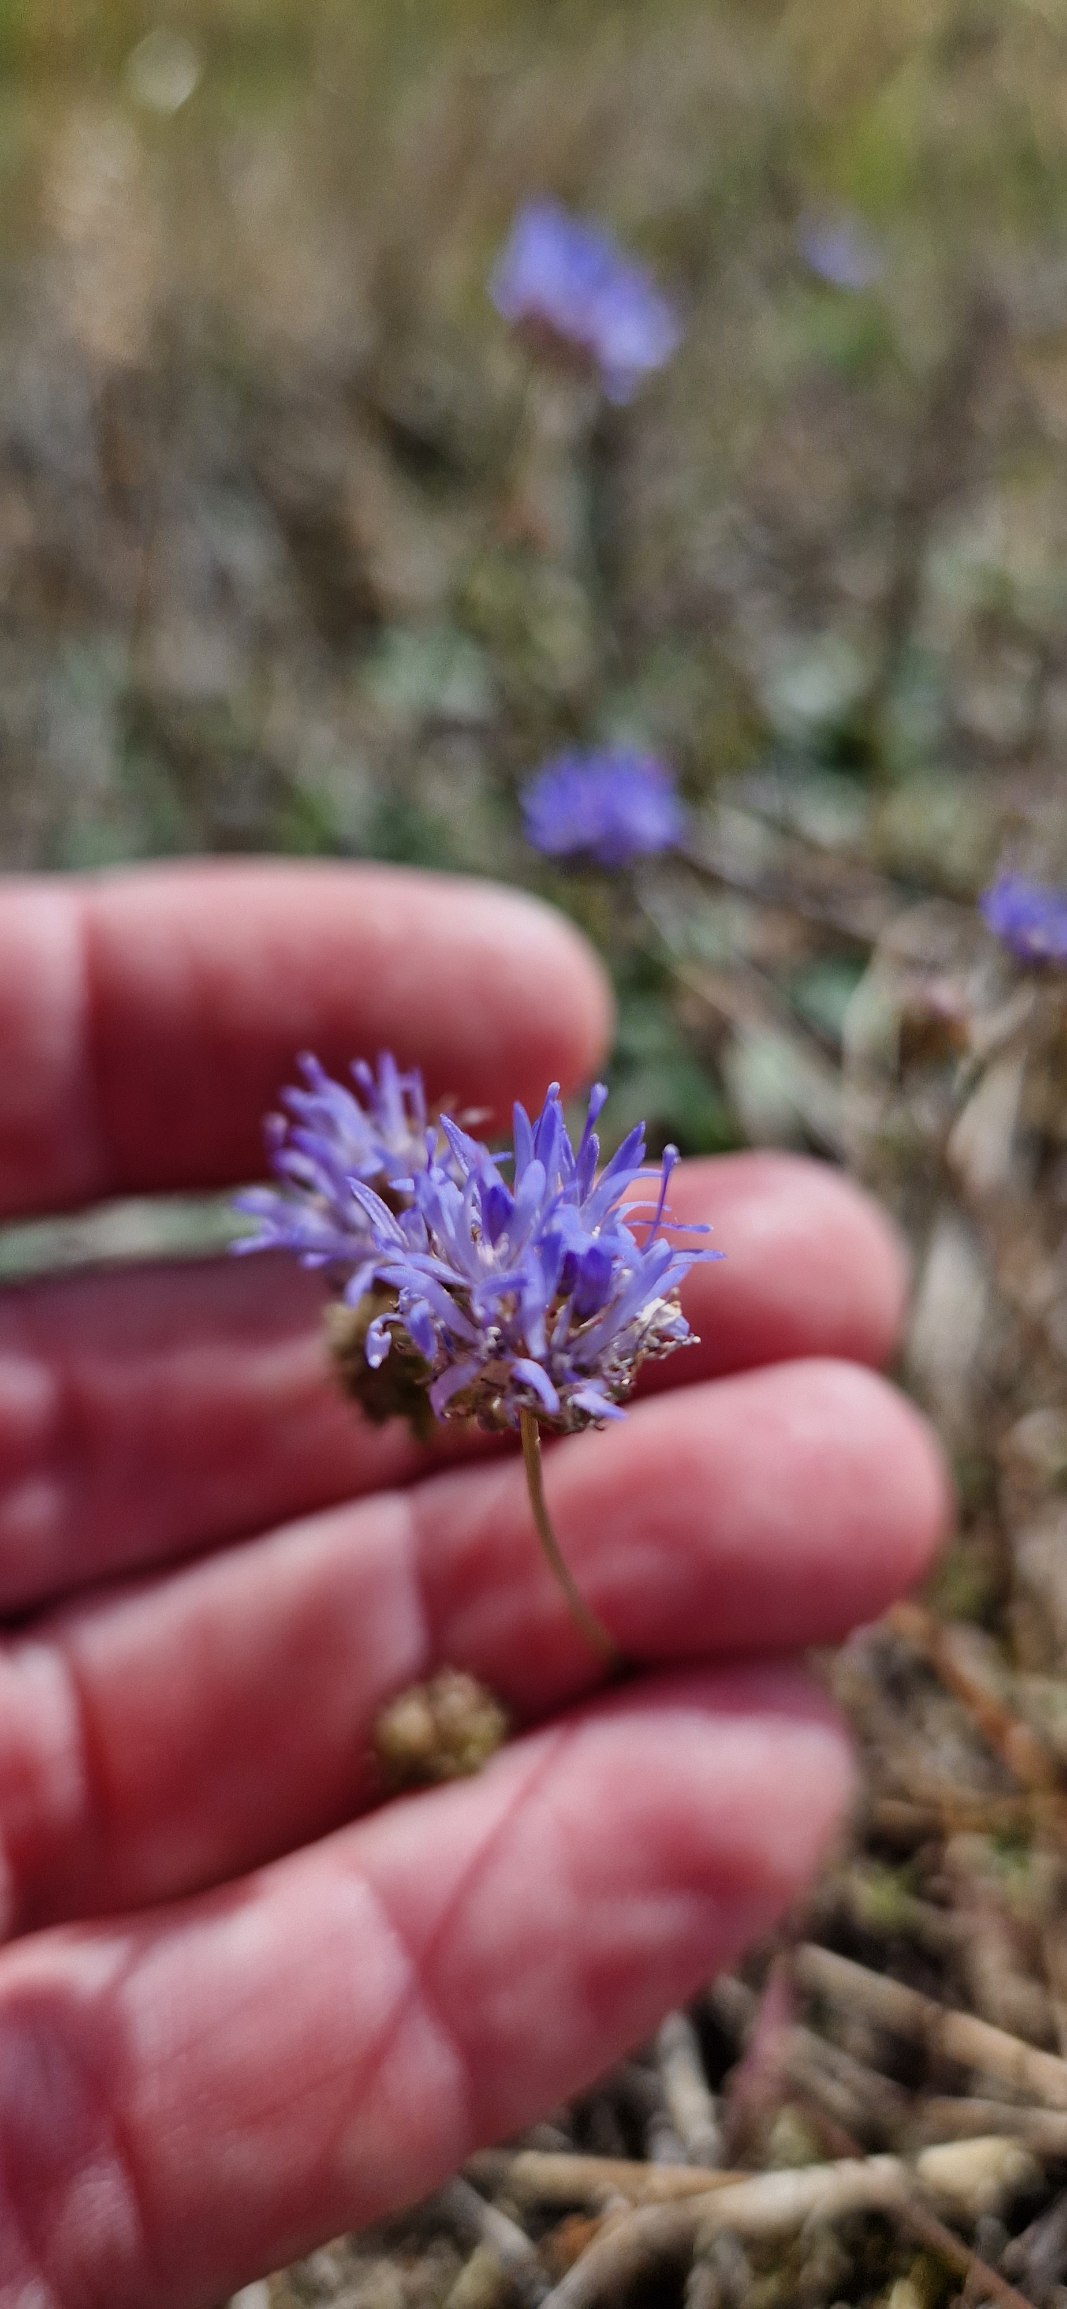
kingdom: Plantae
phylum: Tracheophyta
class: Magnoliopsida
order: Asterales
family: Campanulaceae
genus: Jasione
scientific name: Jasione montana
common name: Blåmunke
